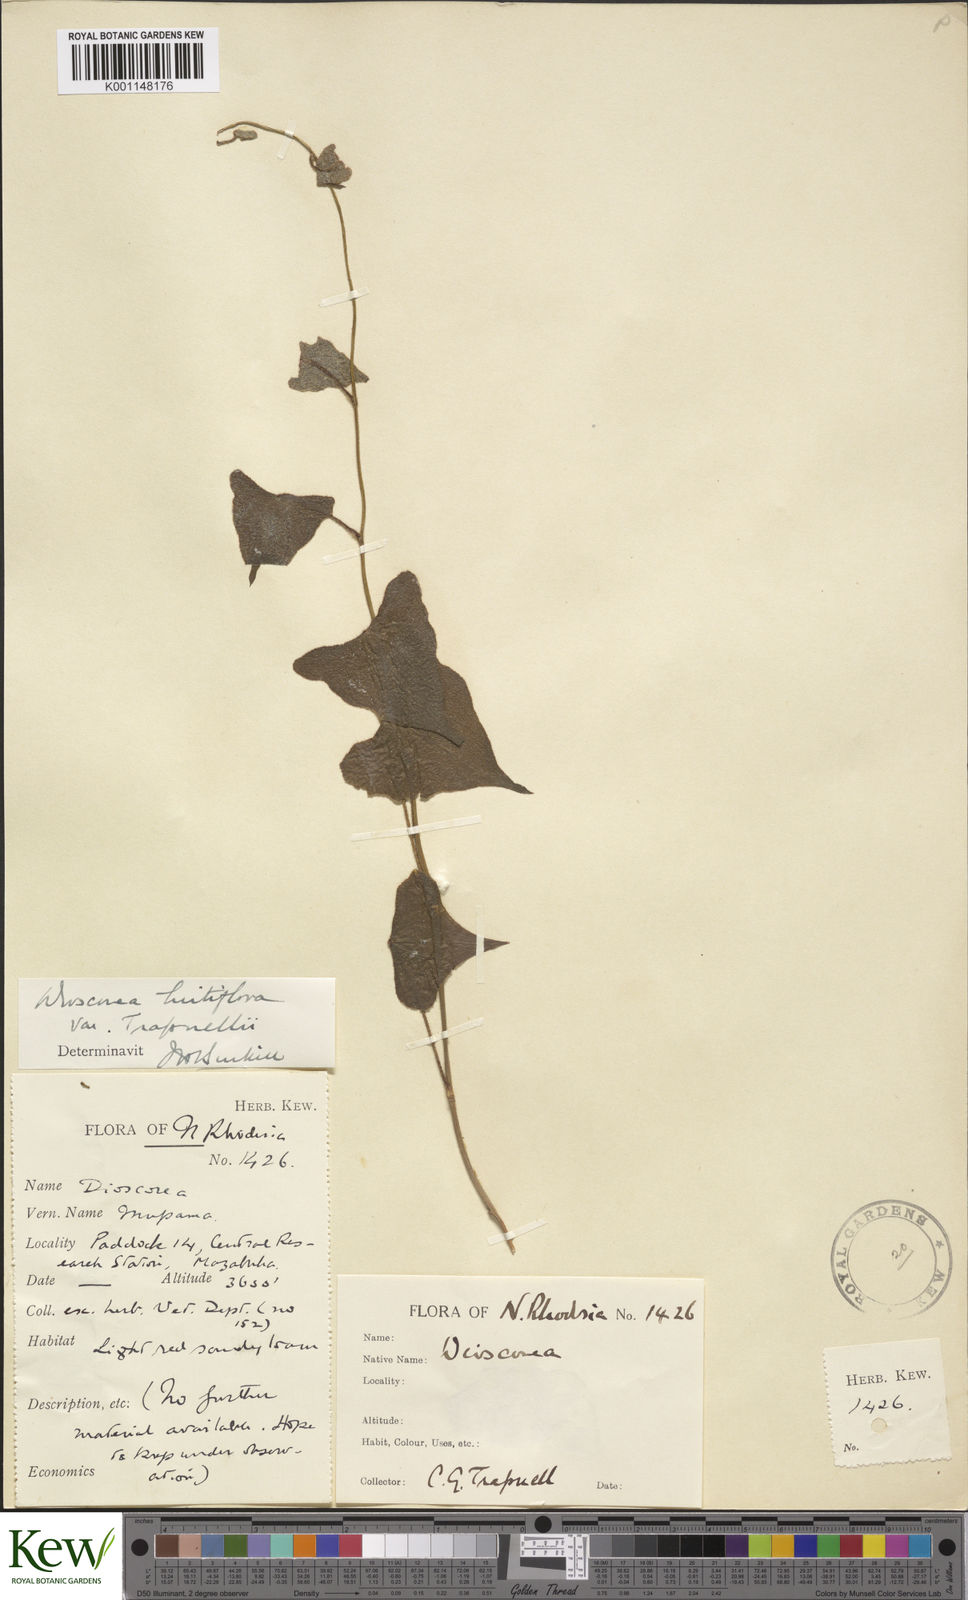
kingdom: Plantae
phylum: Tracheophyta
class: Liliopsida
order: Dioscoreales
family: Dioscoreaceae
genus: Dioscorea
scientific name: Dioscorea hirtiflora
